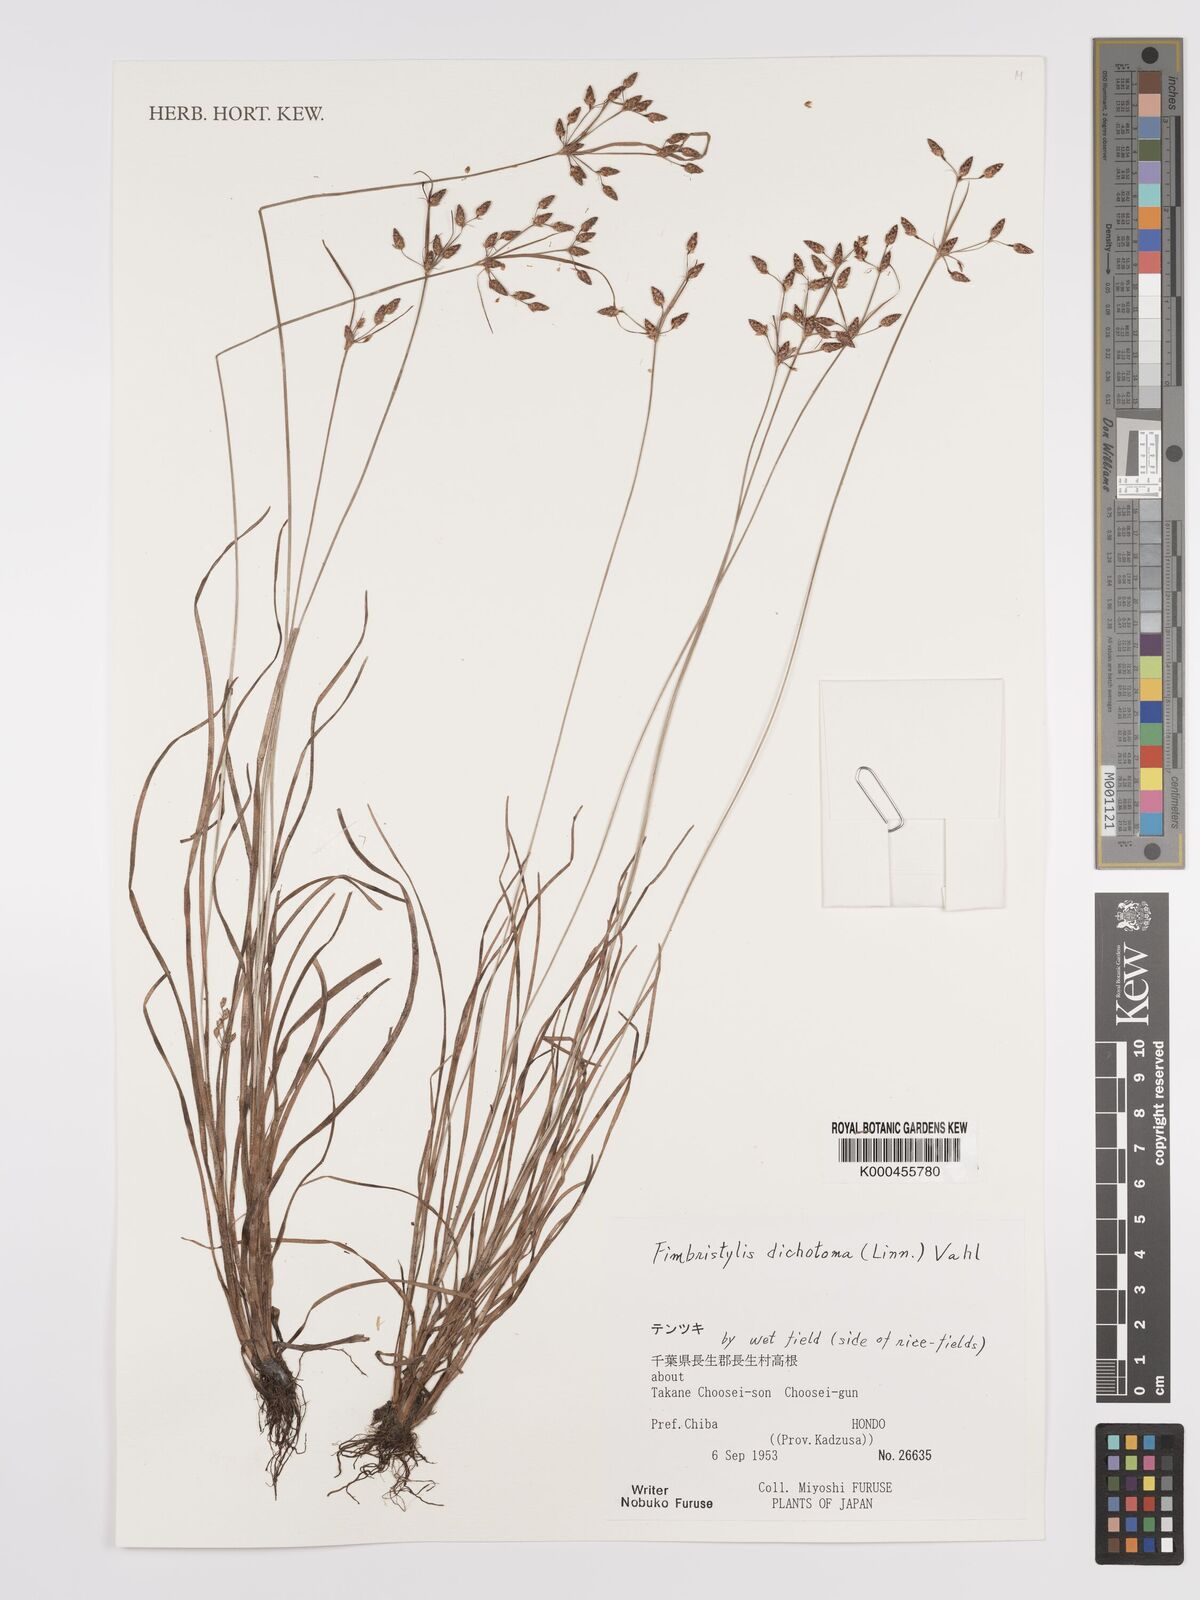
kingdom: Plantae
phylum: Tracheophyta
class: Liliopsida
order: Poales
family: Cyperaceae
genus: Fimbristylis
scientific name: Fimbristylis dichotoma
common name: Forked fimbry
